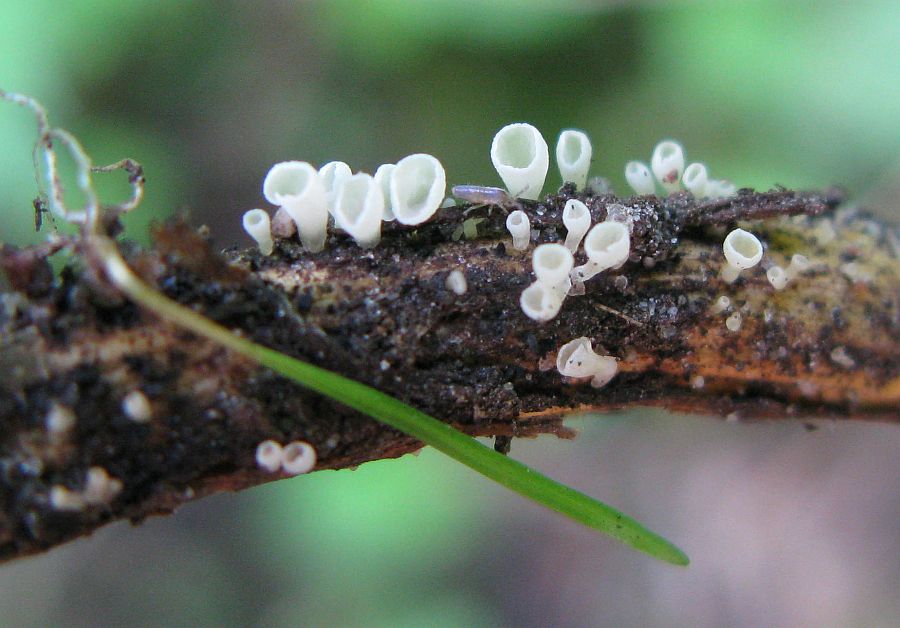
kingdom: Fungi
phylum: Basidiomycota
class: Agaricomycetes
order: Agaricales
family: Marasmiaceae
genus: Calyptella
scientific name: Calyptella capula
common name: hvidlig nældehue
